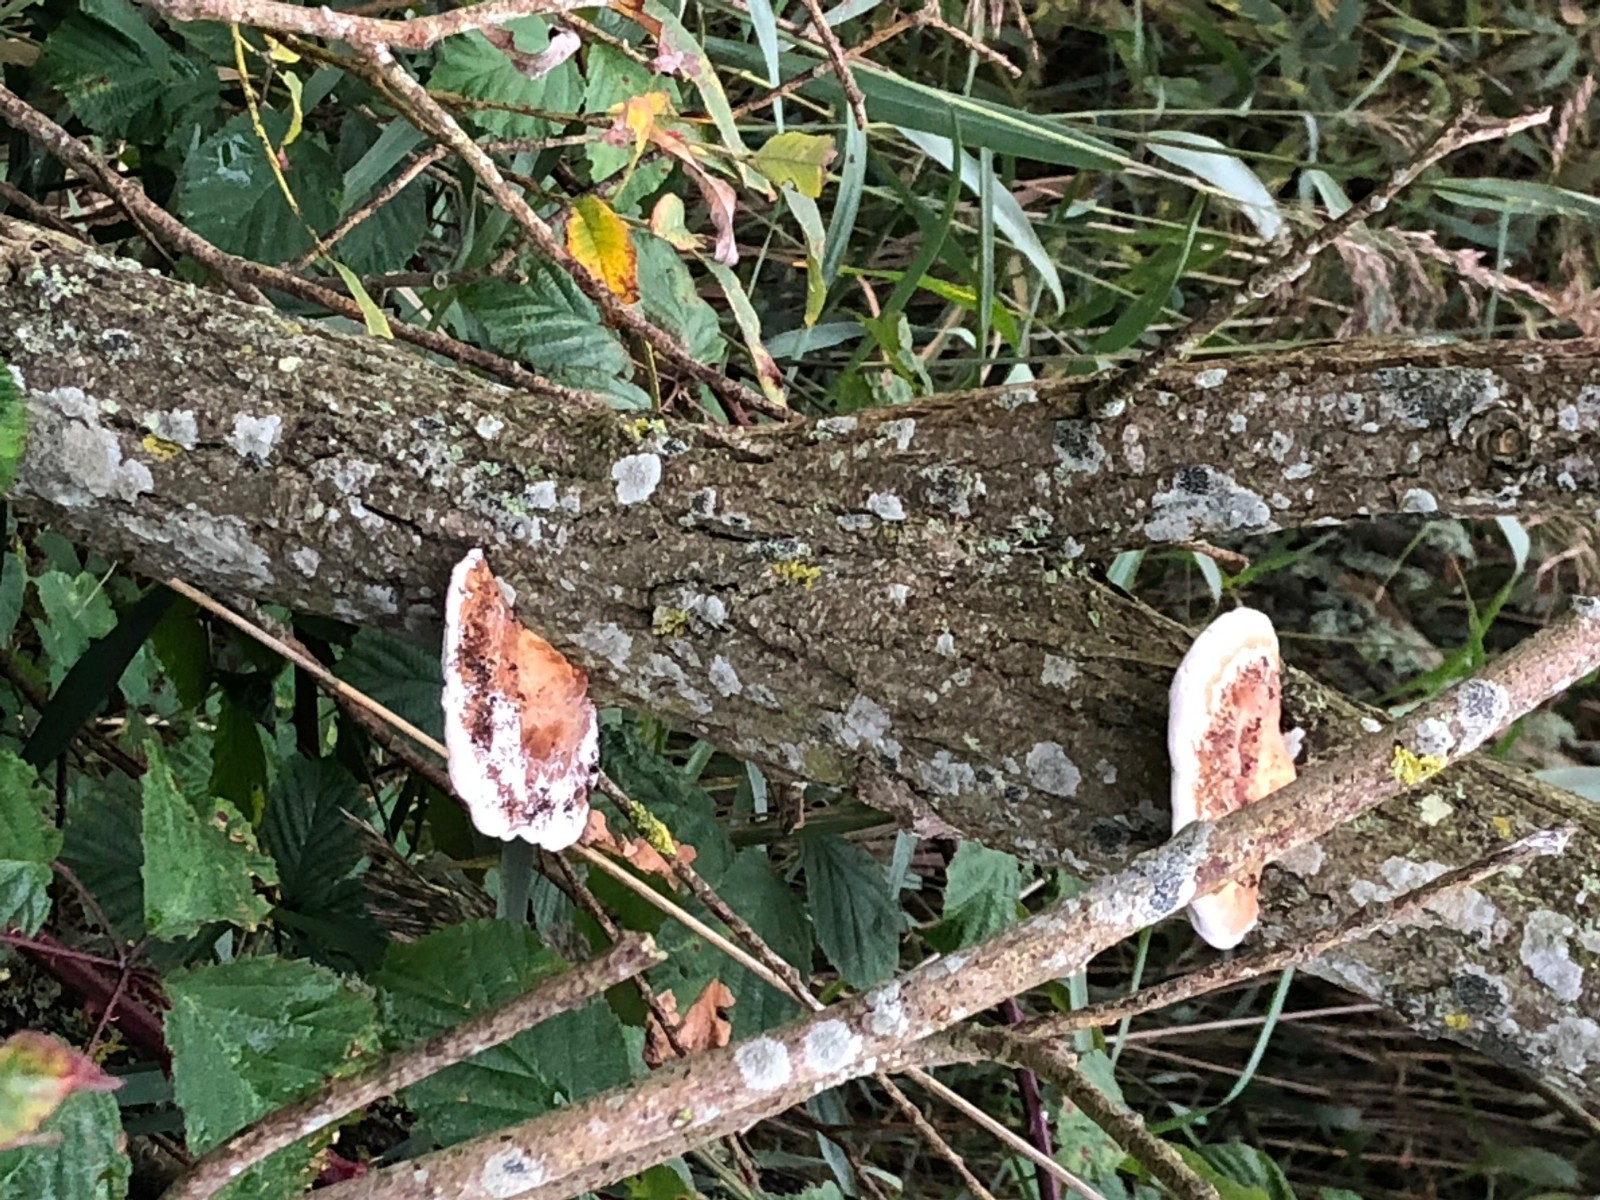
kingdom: Fungi
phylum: Basidiomycota
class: Agaricomycetes
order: Polyporales
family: Polyporaceae
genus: Daedaleopsis
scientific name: Daedaleopsis confragosa
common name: rødmende læderporesvamp
